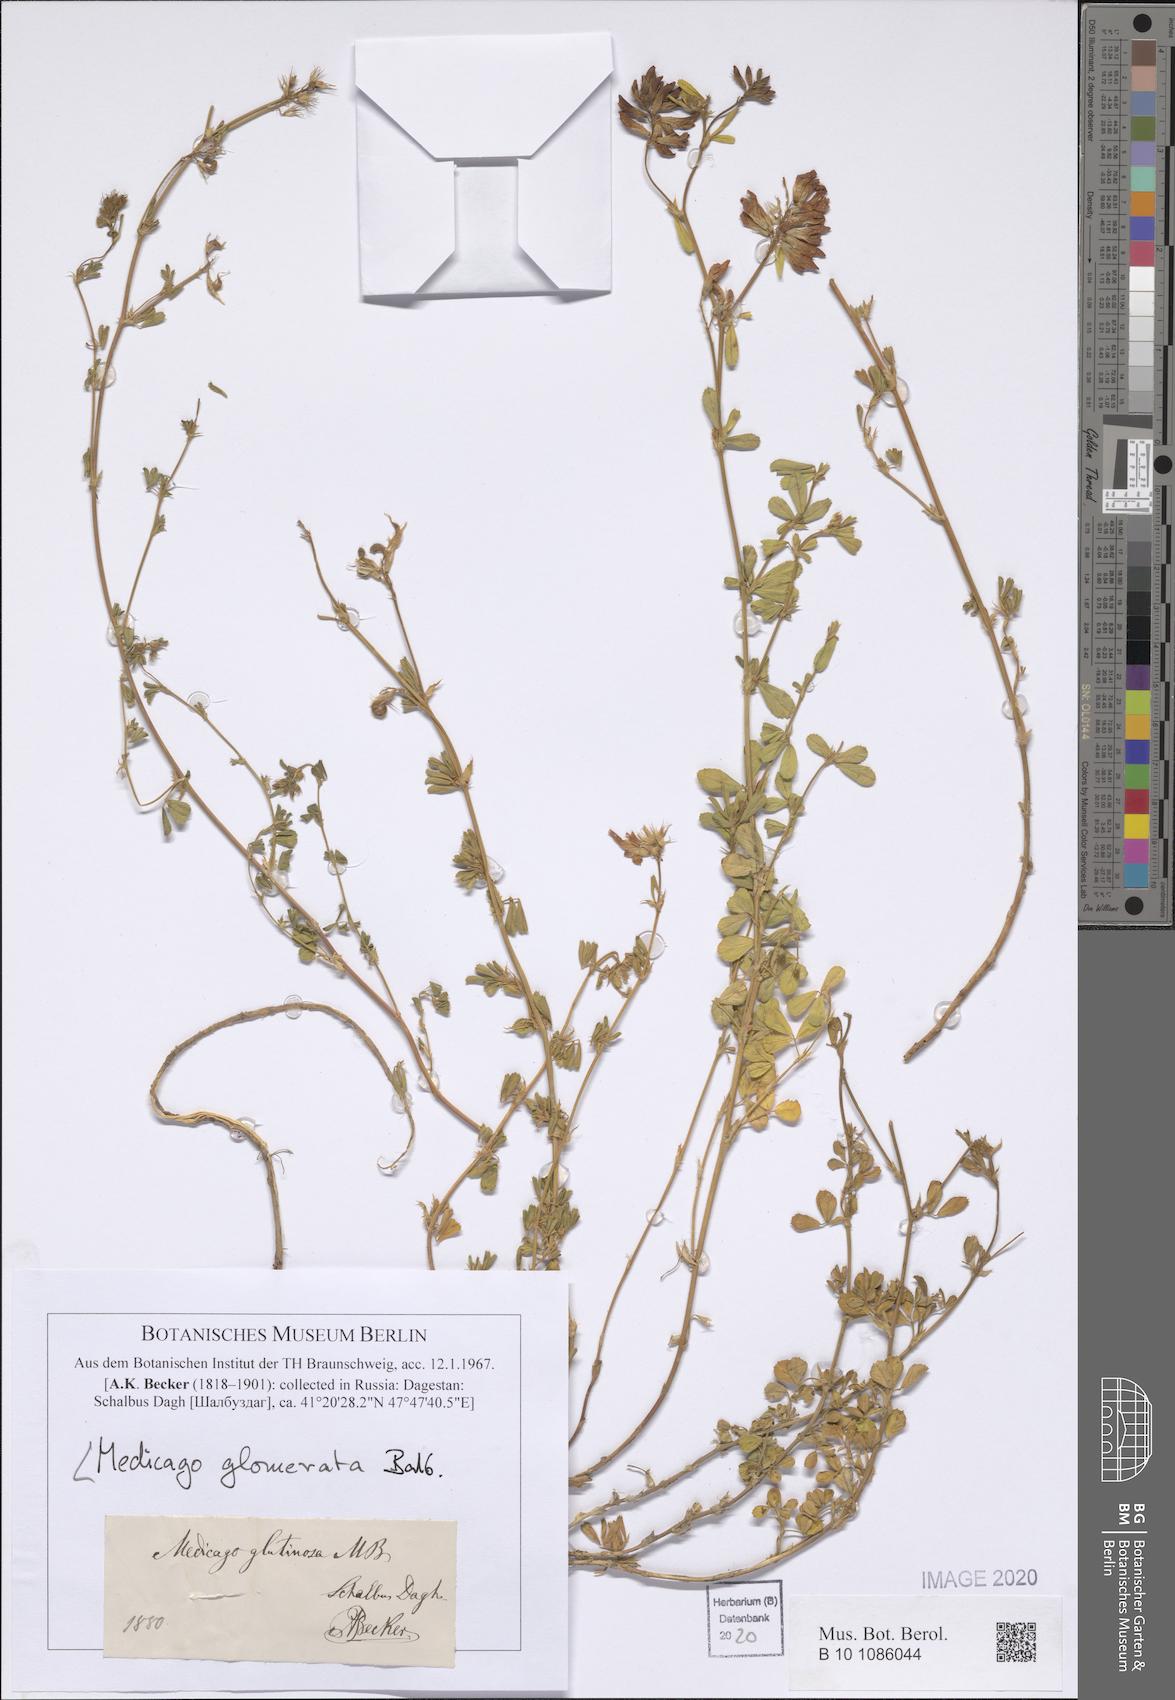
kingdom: Plantae
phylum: Tracheophyta
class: Magnoliopsida
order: Fabales
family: Fabaceae
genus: Medicago
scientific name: Medicago sativa
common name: Alfalfa
